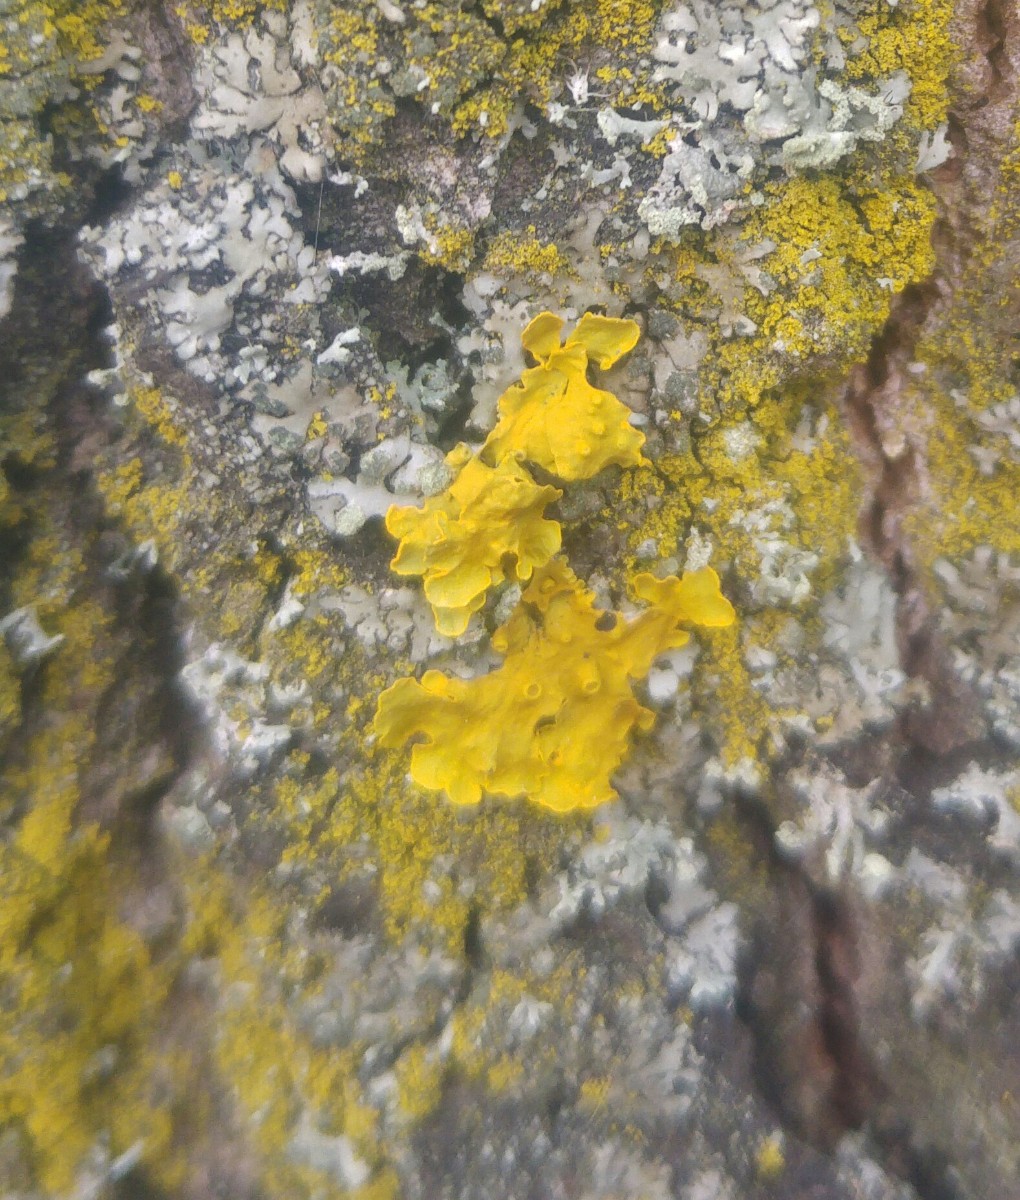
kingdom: Fungi
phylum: Ascomycota
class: Lecanoromycetes
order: Teloschistales
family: Teloschistaceae
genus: Xanthoria
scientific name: Xanthoria parietina
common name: almindelig væggelav
